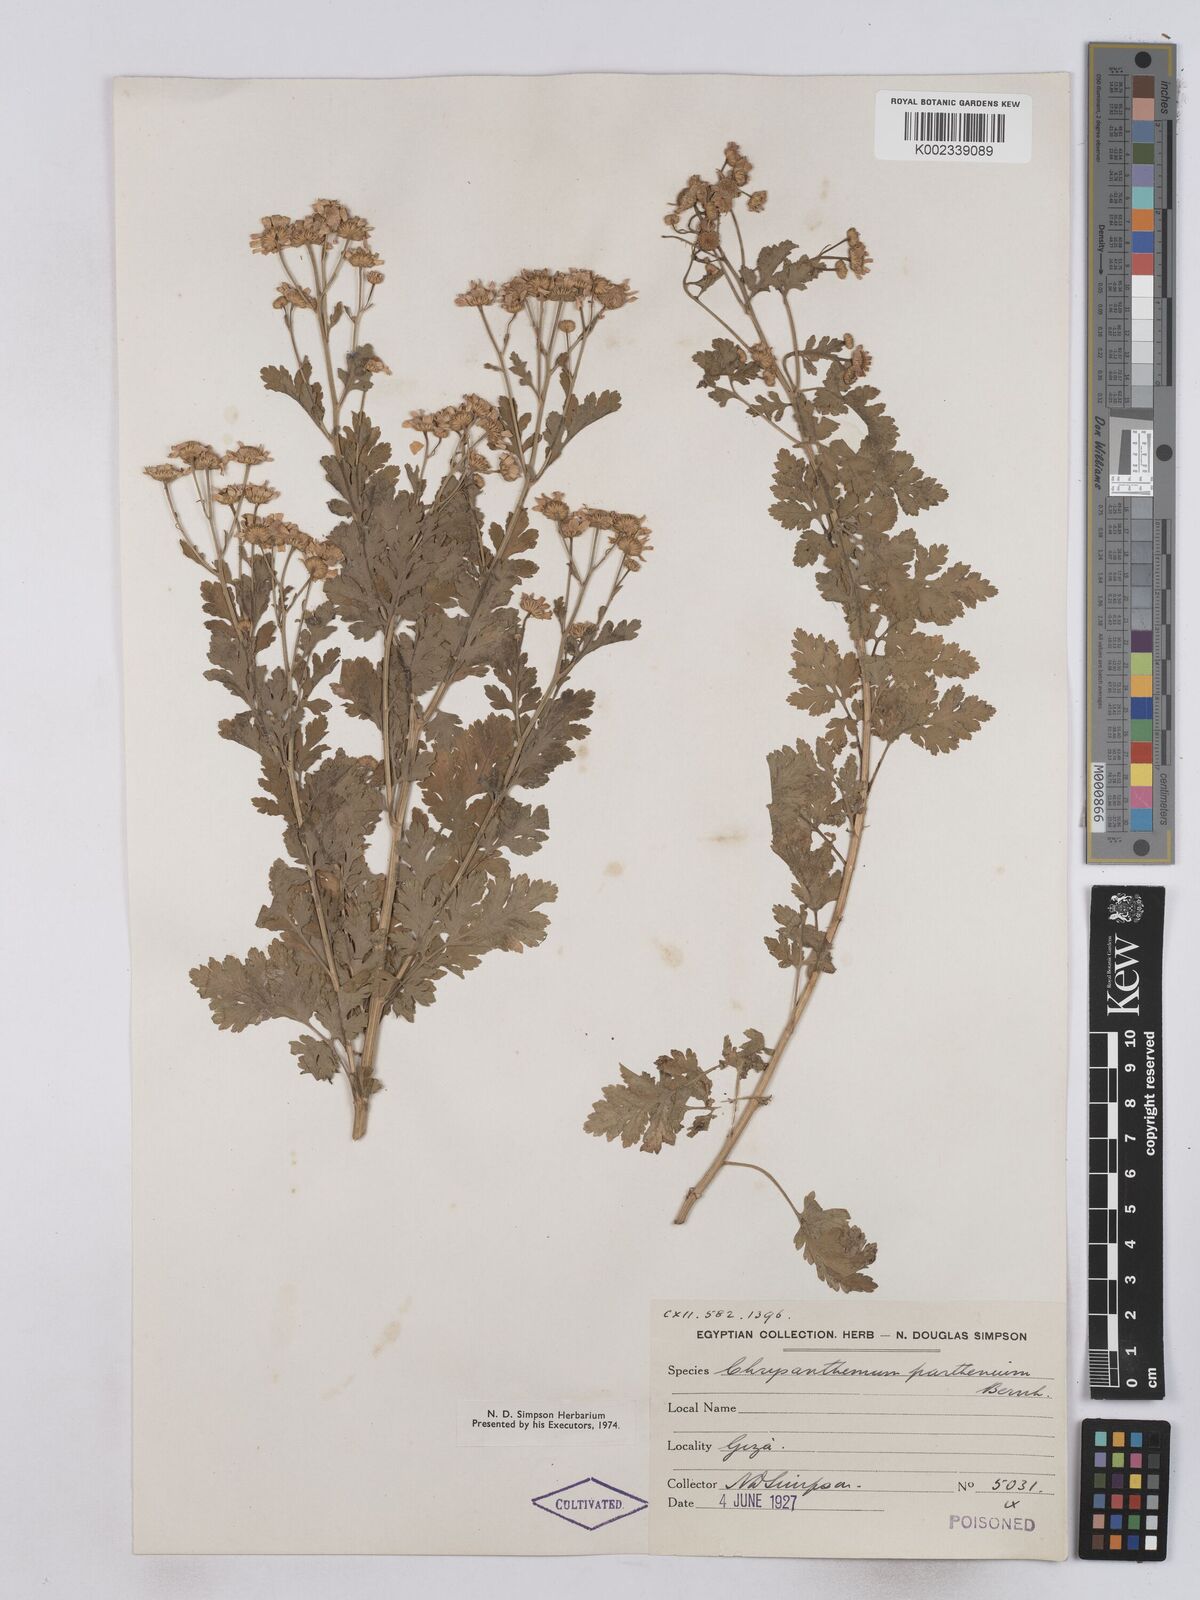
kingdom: Plantae
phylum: Tracheophyta
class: Magnoliopsida
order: Asterales
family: Asteraceae
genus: Tanacetum
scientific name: Tanacetum parthenium
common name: Feverfew
